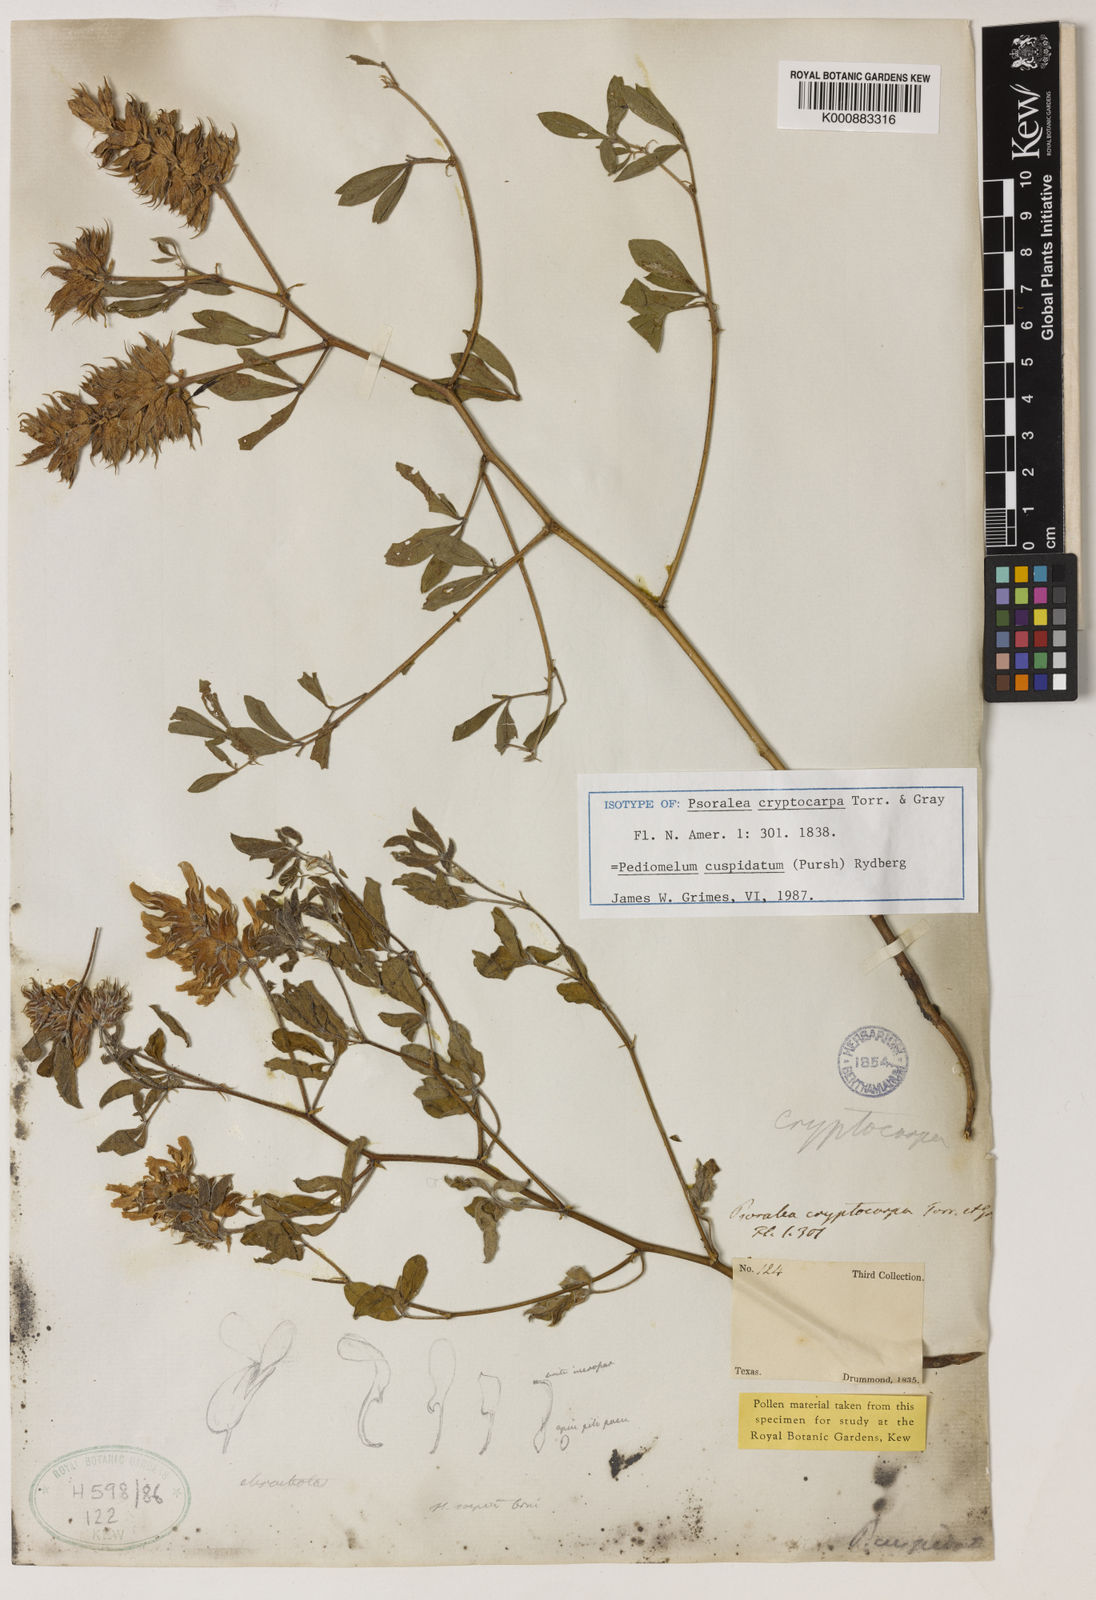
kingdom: Plantae
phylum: Tracheophyta
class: Magnoliopsida
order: Fabales
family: Fabaceae
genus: Pediomelum
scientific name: Pediomelum cuspidatum
